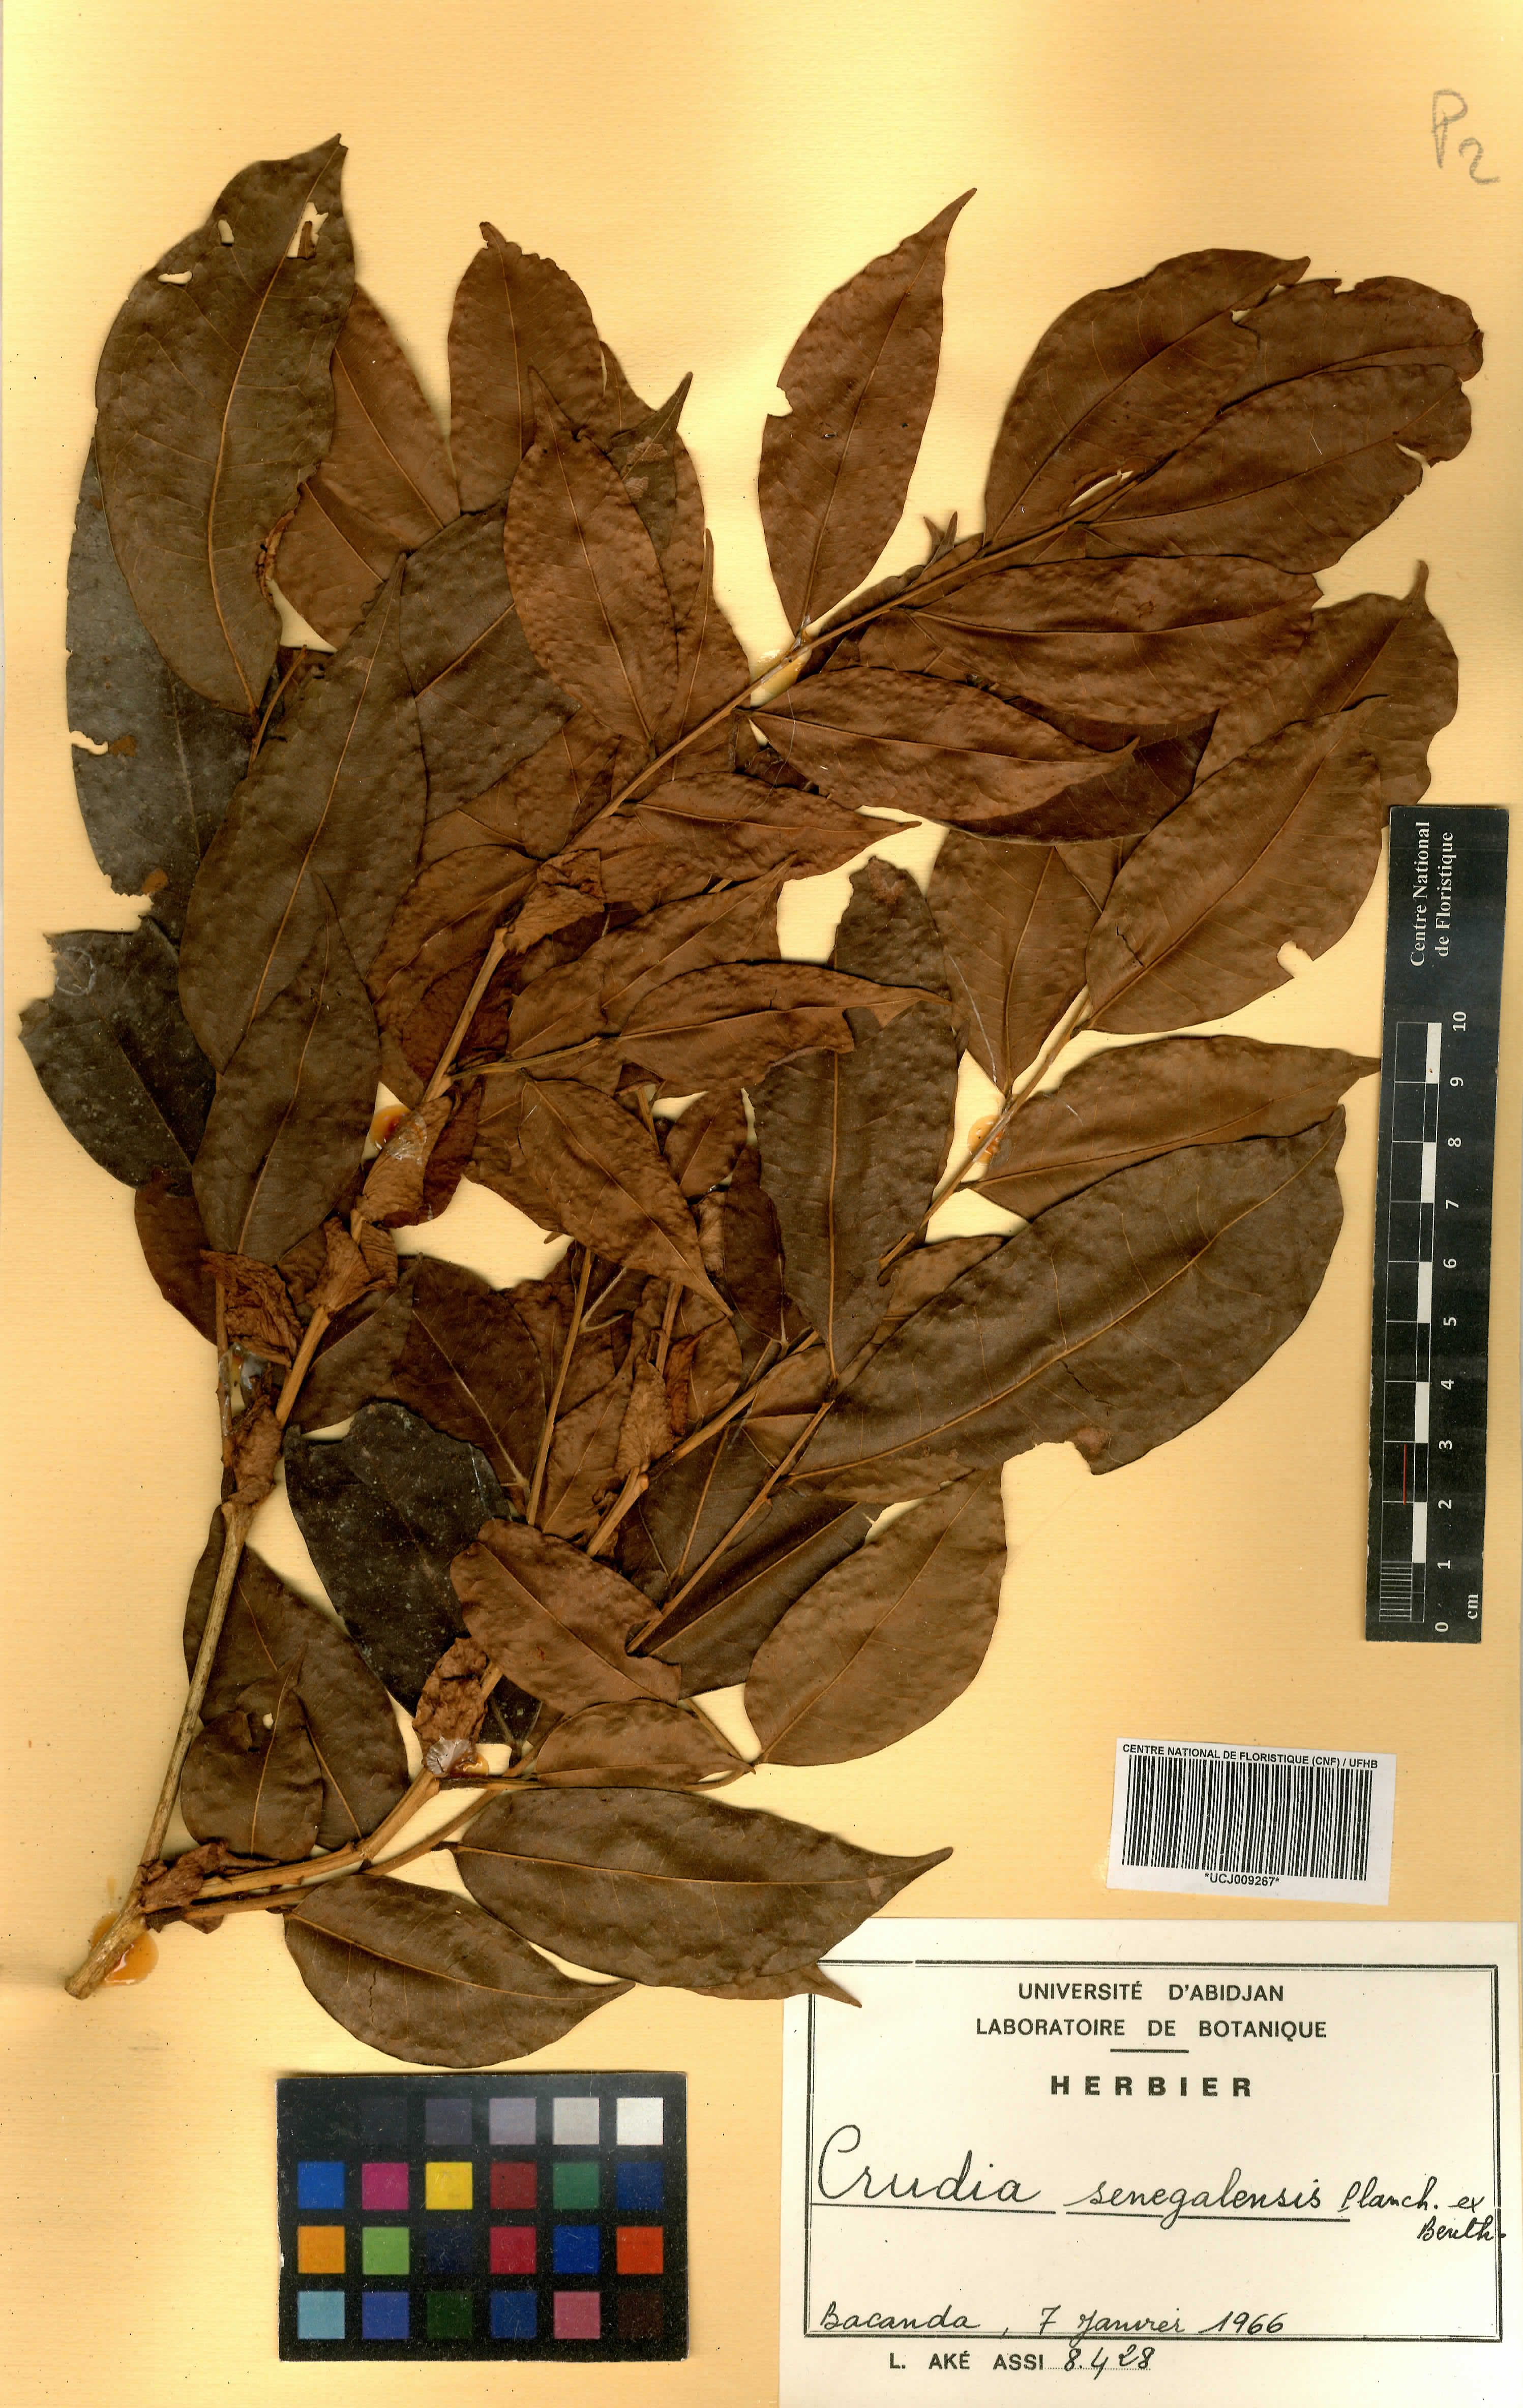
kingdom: Plantae
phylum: Tracheophyta
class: Magnoliopsida
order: Fabales
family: Fabaceae
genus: Crudia
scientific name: Crudia senegalensis
